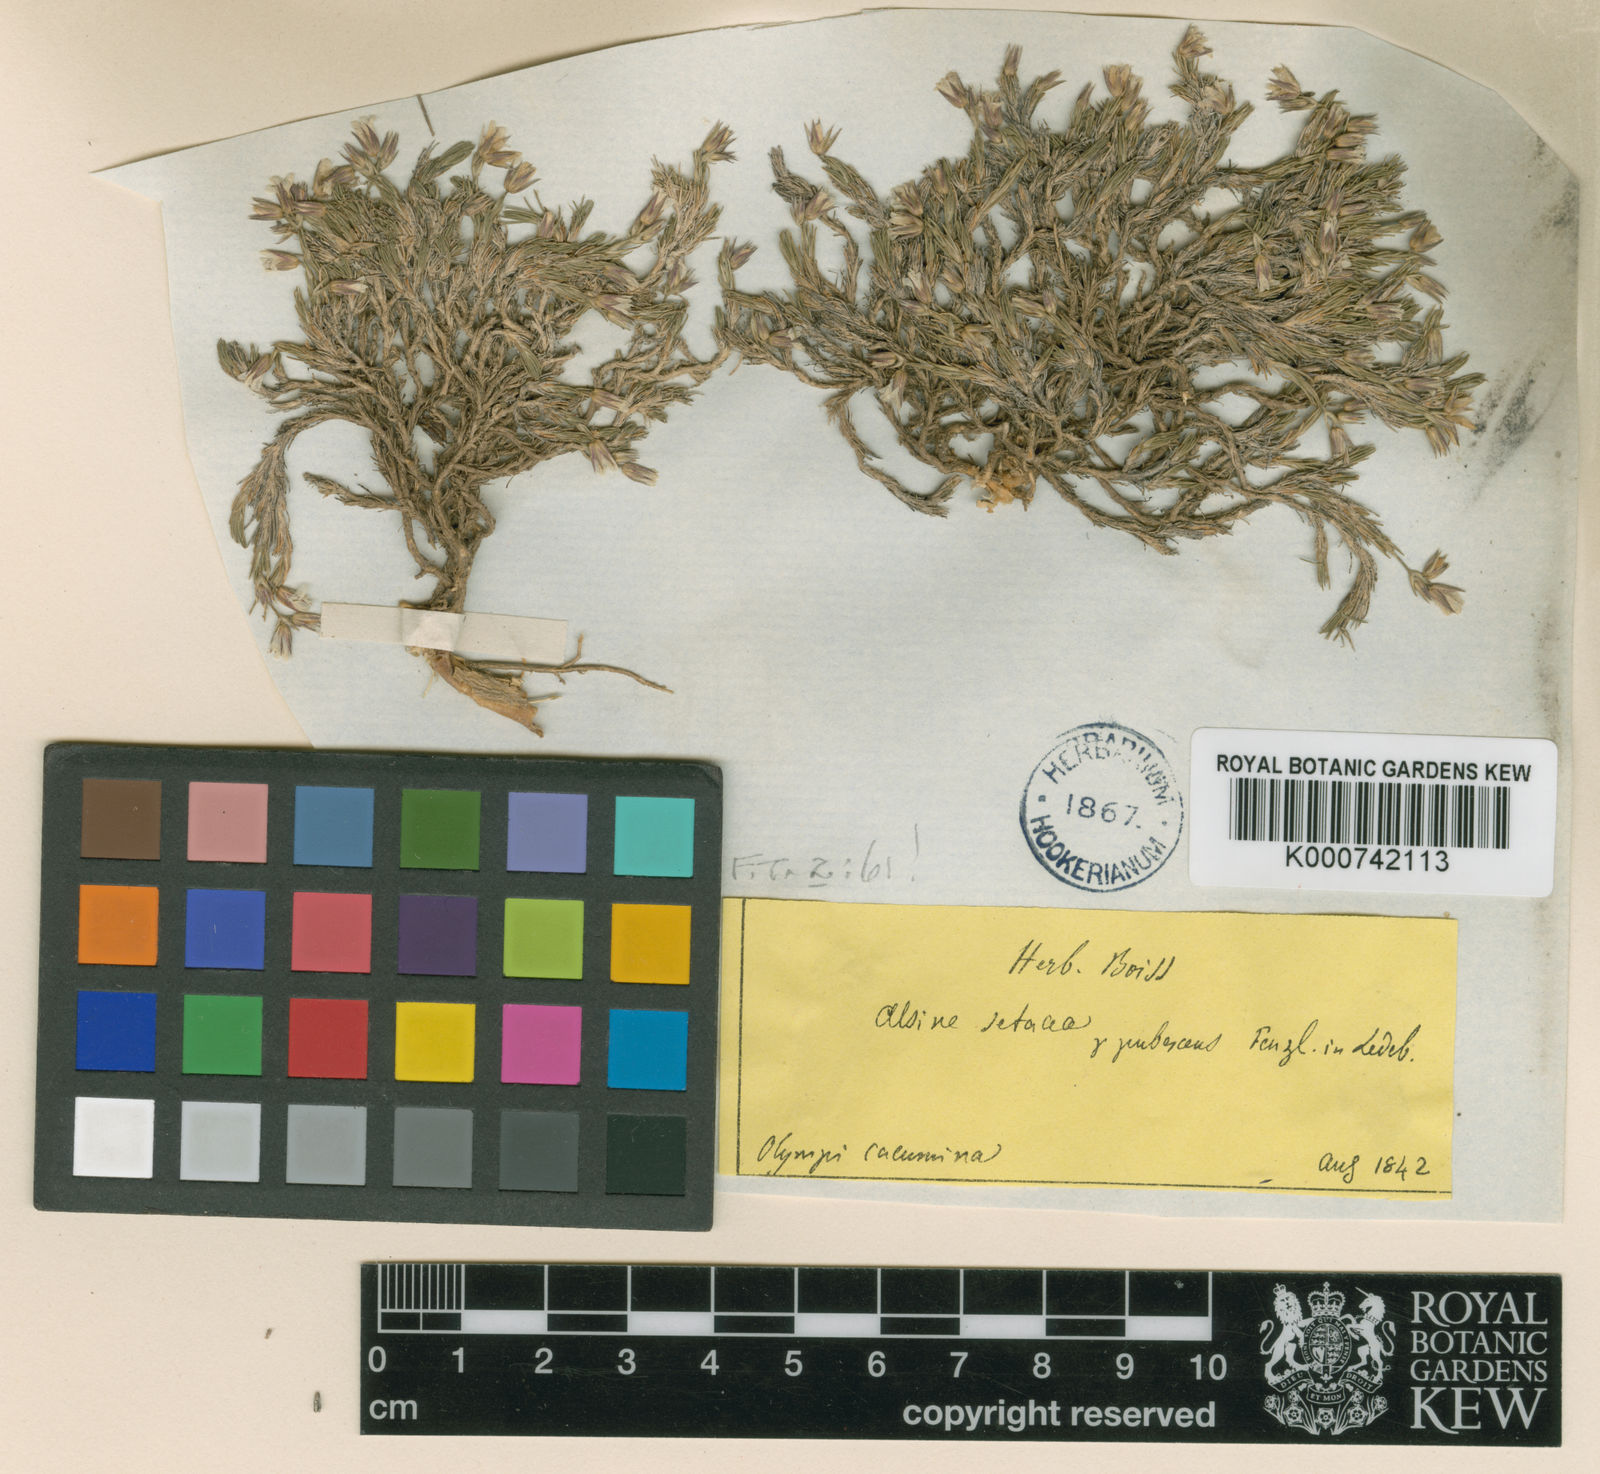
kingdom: Plantae
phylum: Tracheophyta
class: Magnoliopsida
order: Caryophyllales
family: Caryophyllaceae
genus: Minuartia
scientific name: Minuartia erythrosepala
